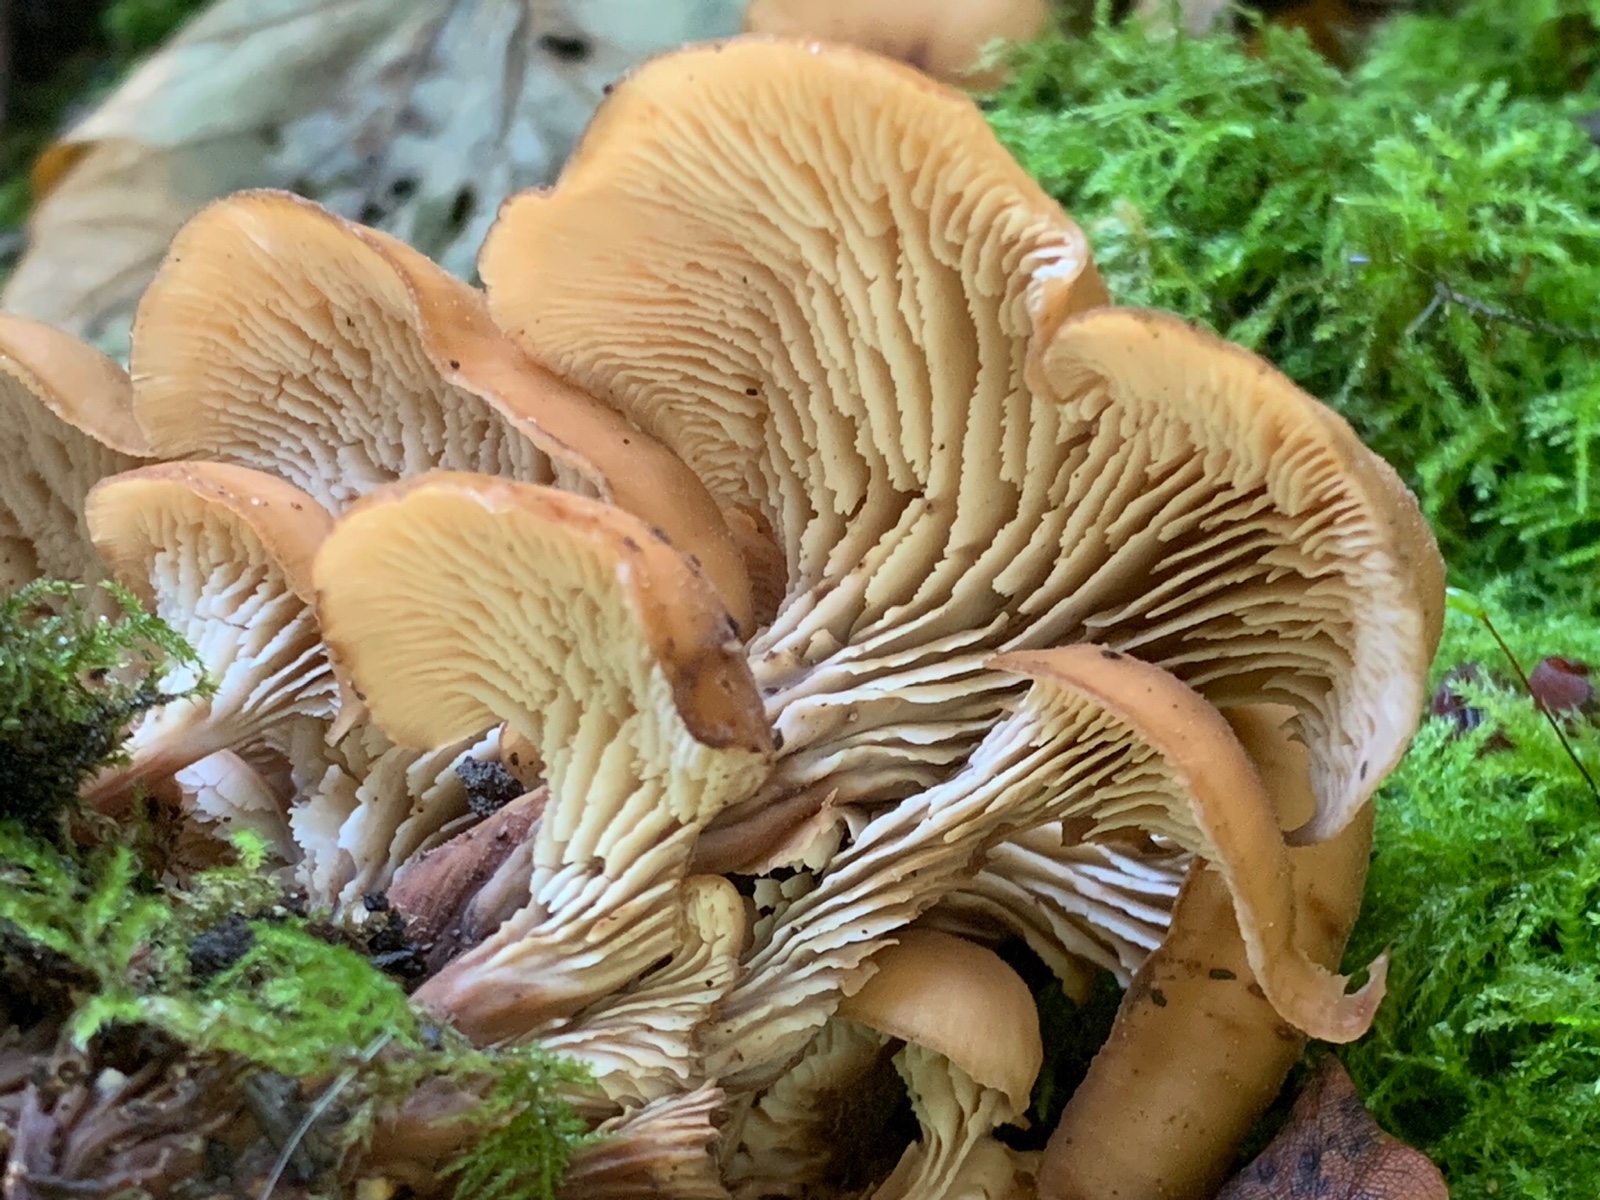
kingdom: Fungi
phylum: Basidiomycota
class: Agaricomycetes
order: Russulales
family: Auriscalpiaceae
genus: Lentinellus
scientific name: Lentinellus cochleatus
